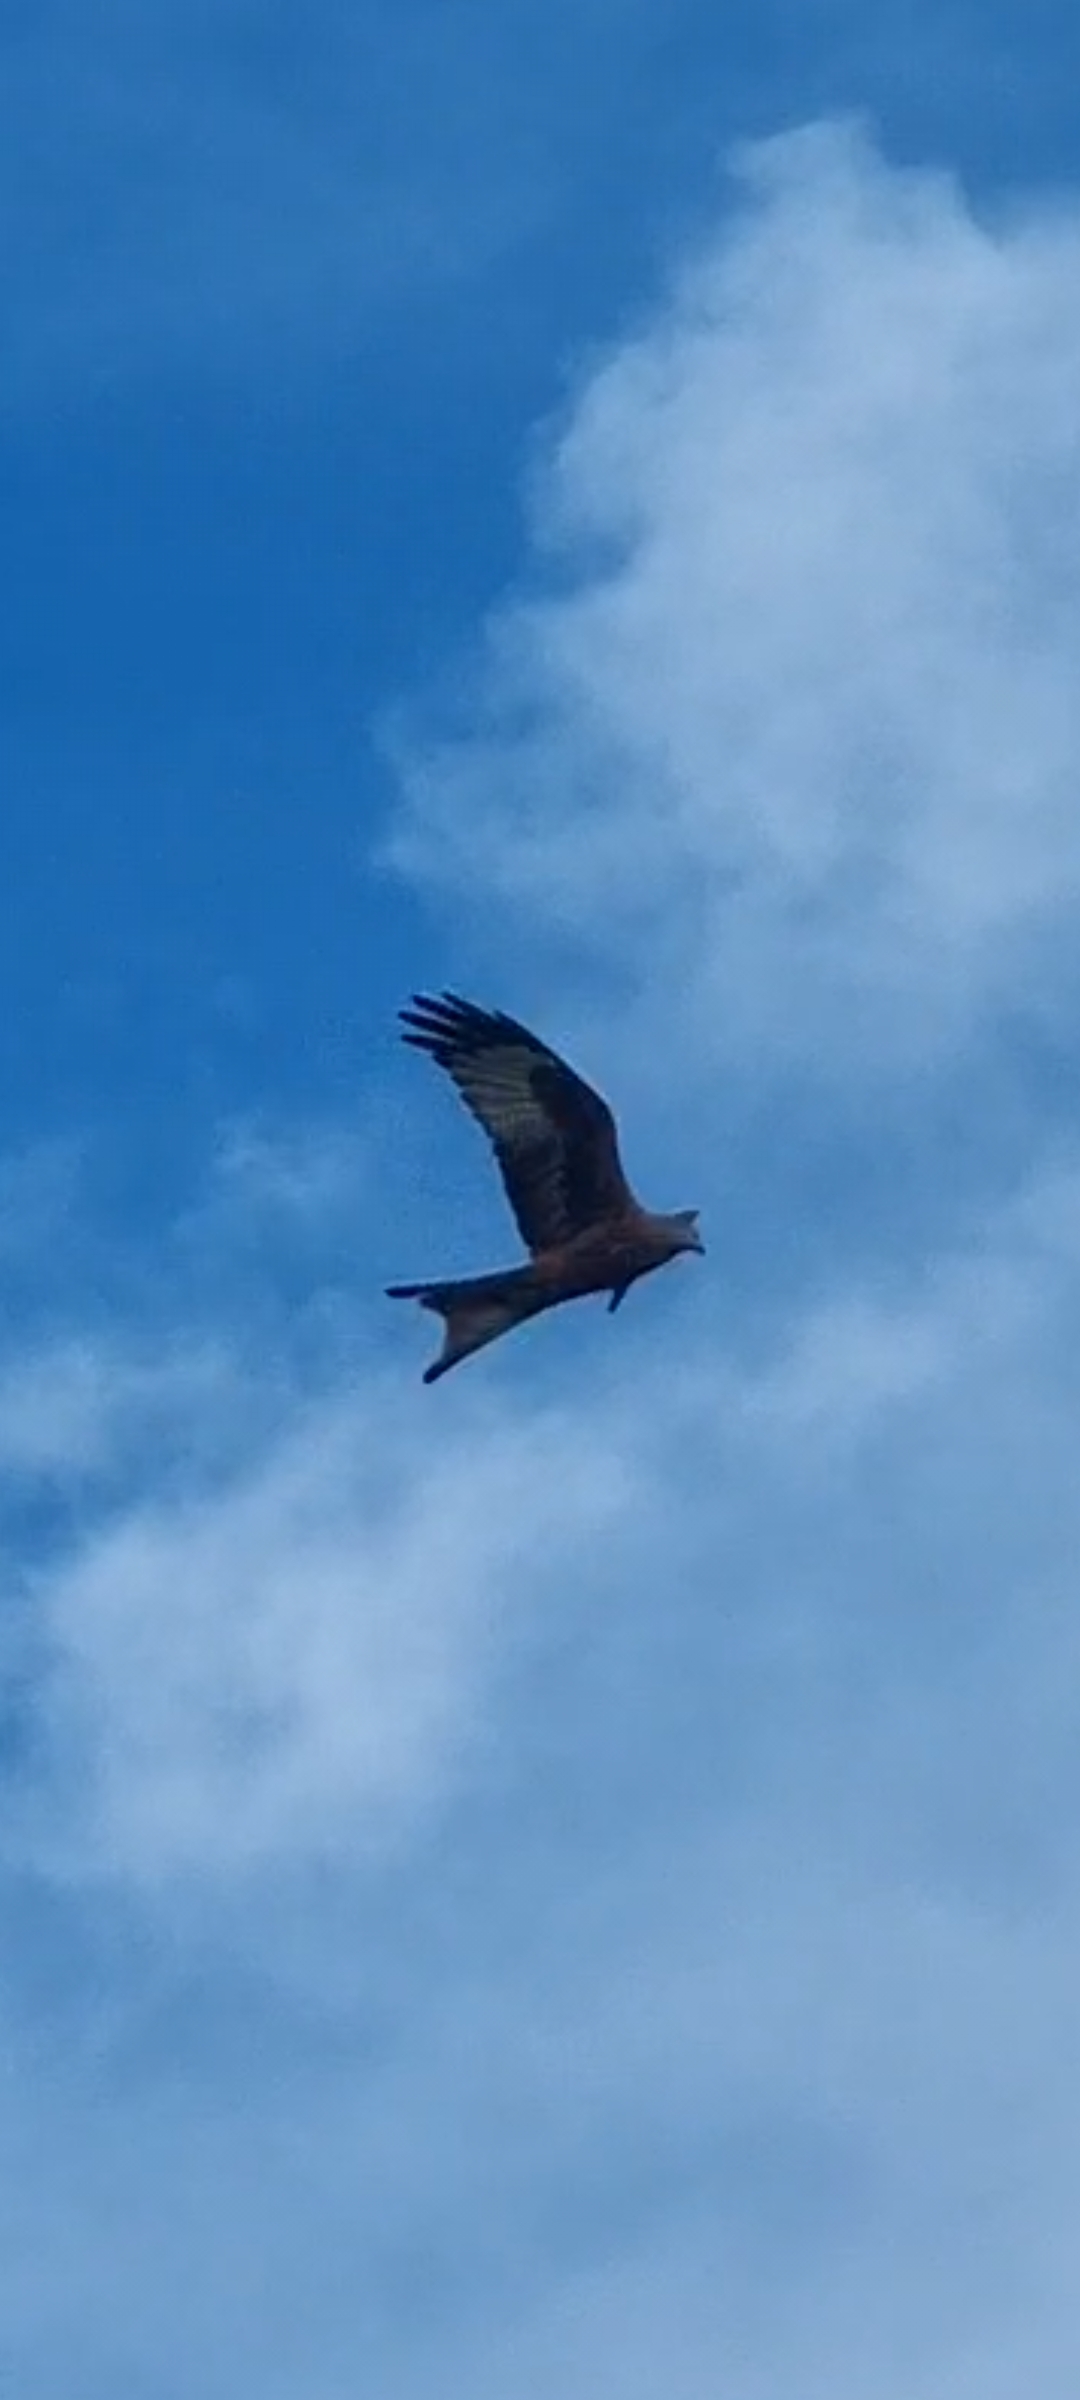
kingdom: Animalia
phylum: Chordata
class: Aves
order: Accipitriformes
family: Accipitridae
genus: Milvus
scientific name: Milvus milvus
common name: Rød glente
